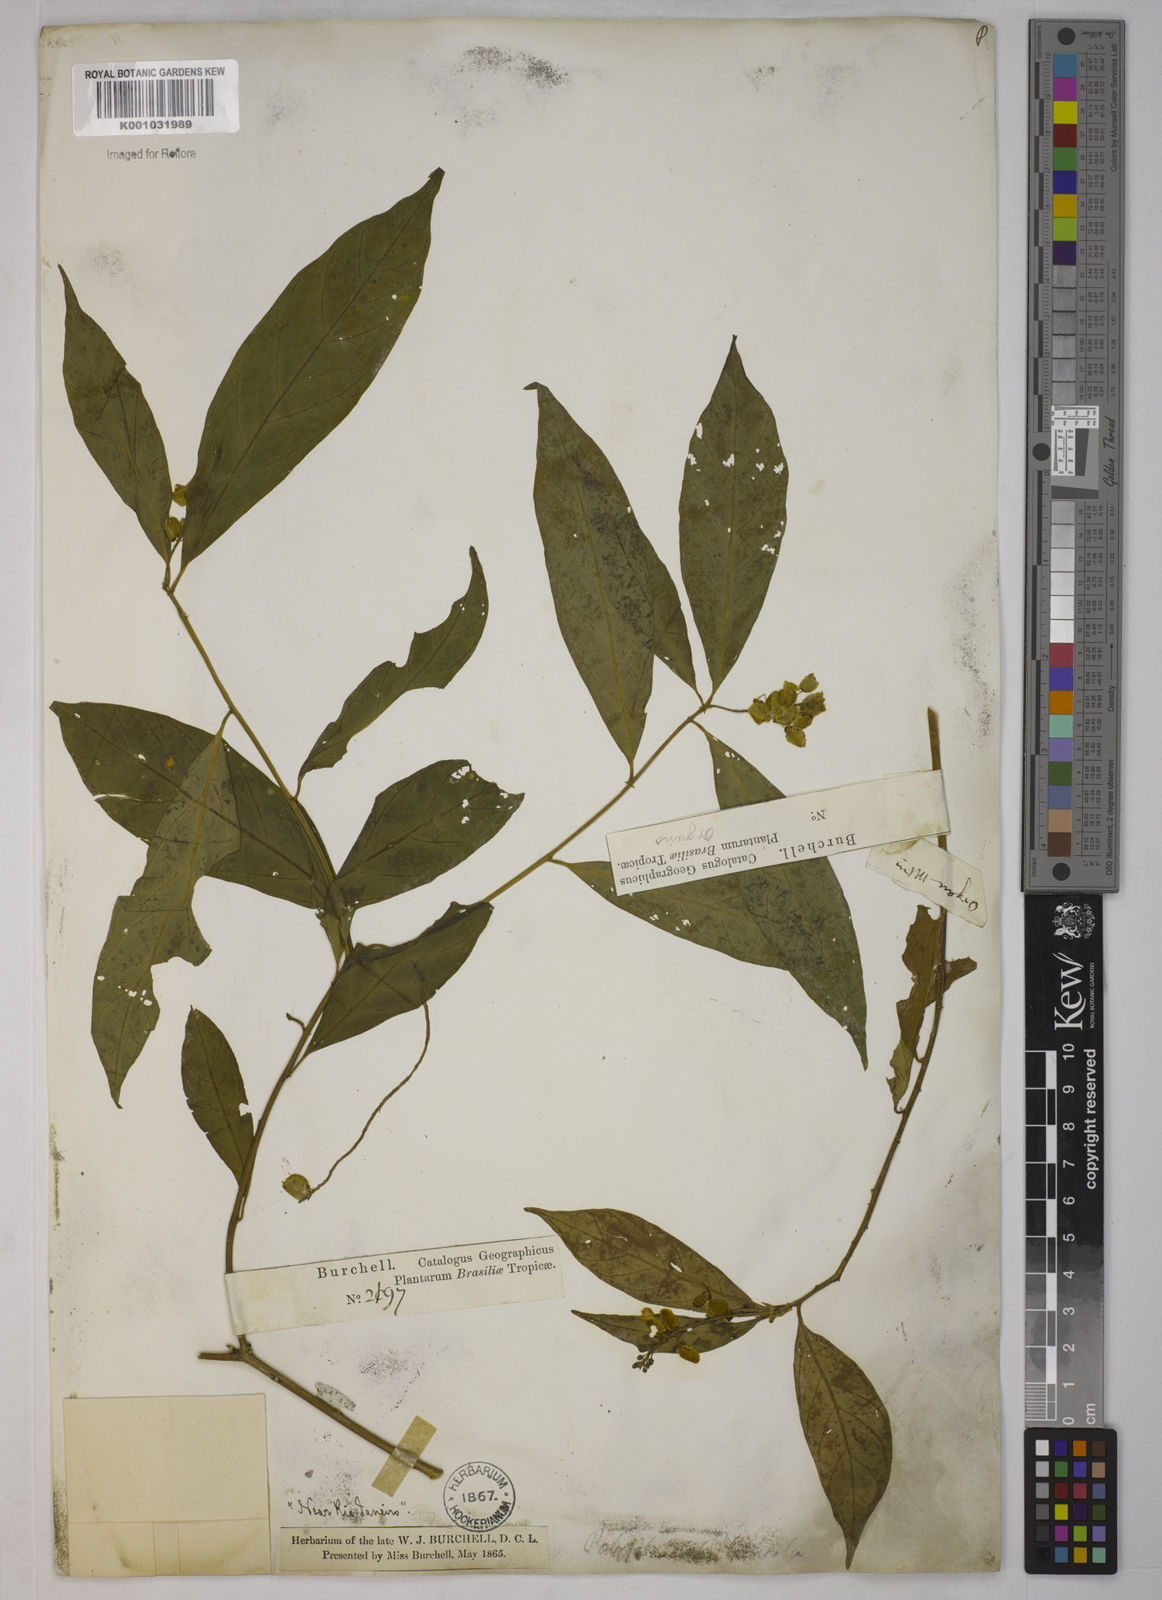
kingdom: Plantae
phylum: Tracheophyta
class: Magnoliopsida
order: Fabales
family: Polygalaceae
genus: Caamembeca
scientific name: Caamembeca salicifolia
